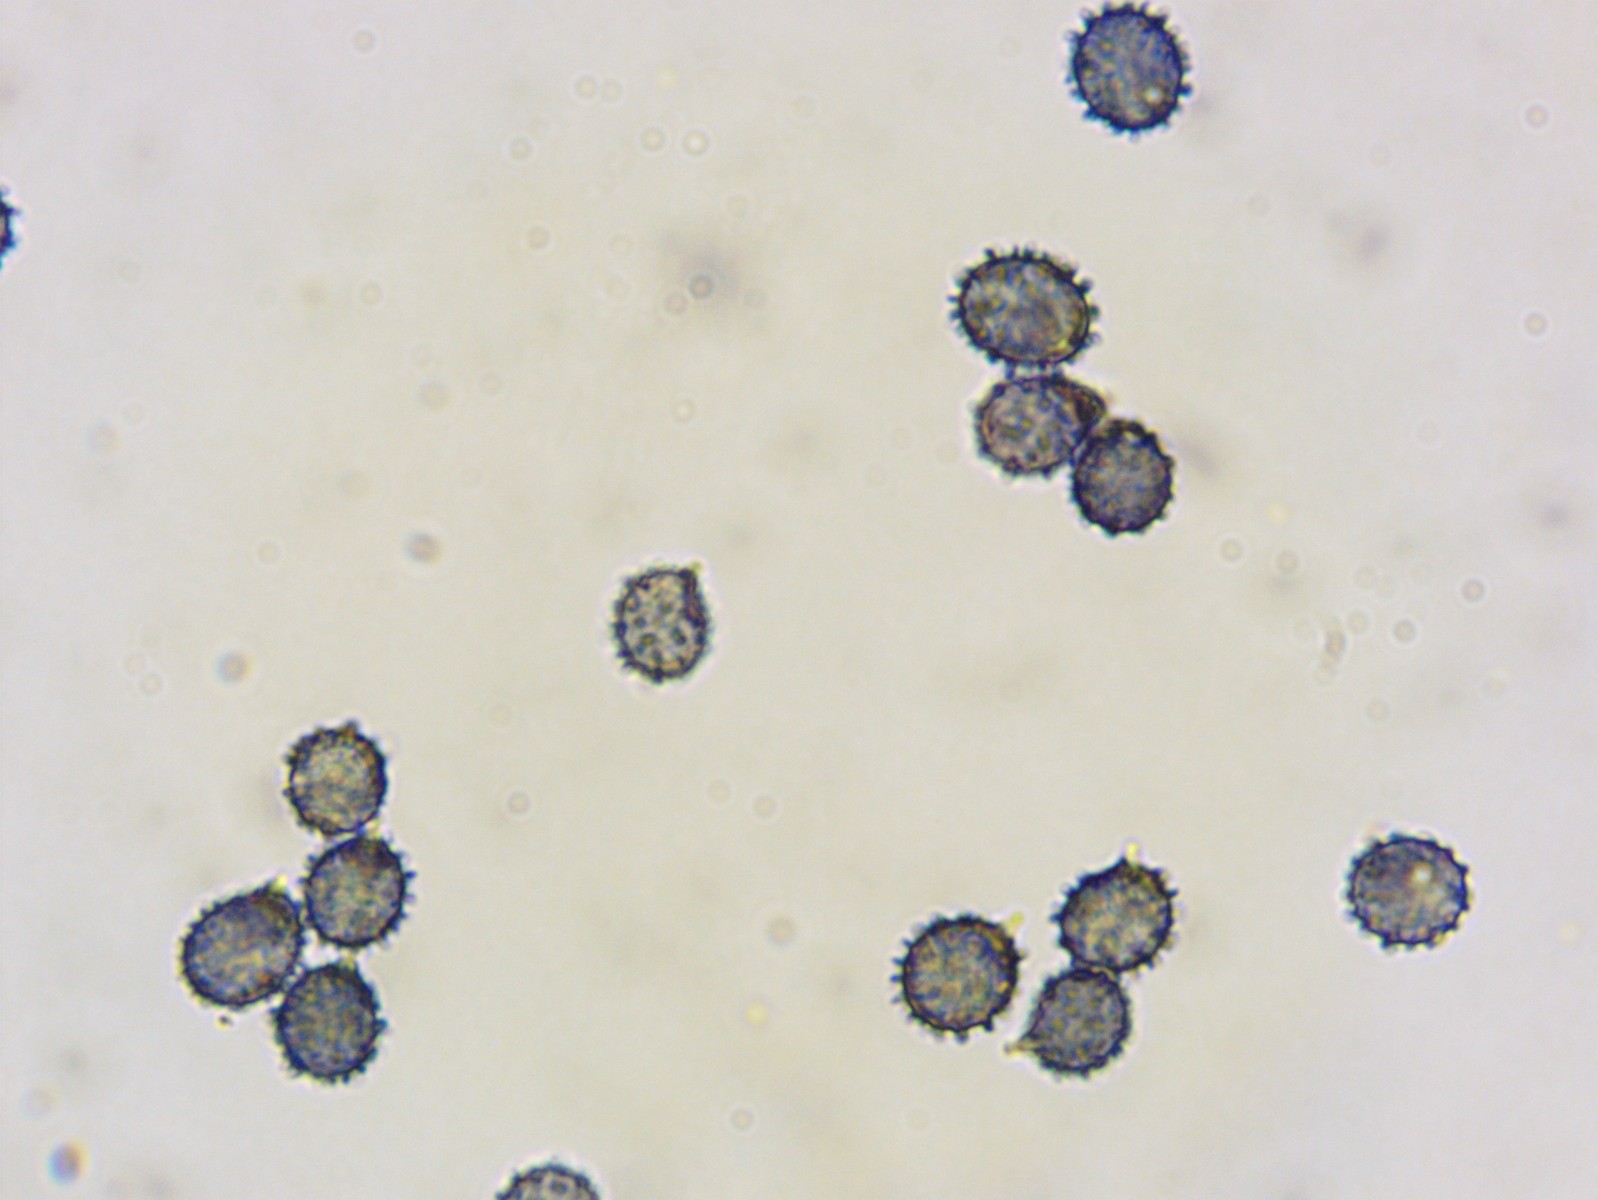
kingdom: Fungi
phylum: Basidiomycota
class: Agaricomycetes
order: Russulales
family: Russulaceae
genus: Russula
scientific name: Russula silvestris
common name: mellemstor gift-skørhat
